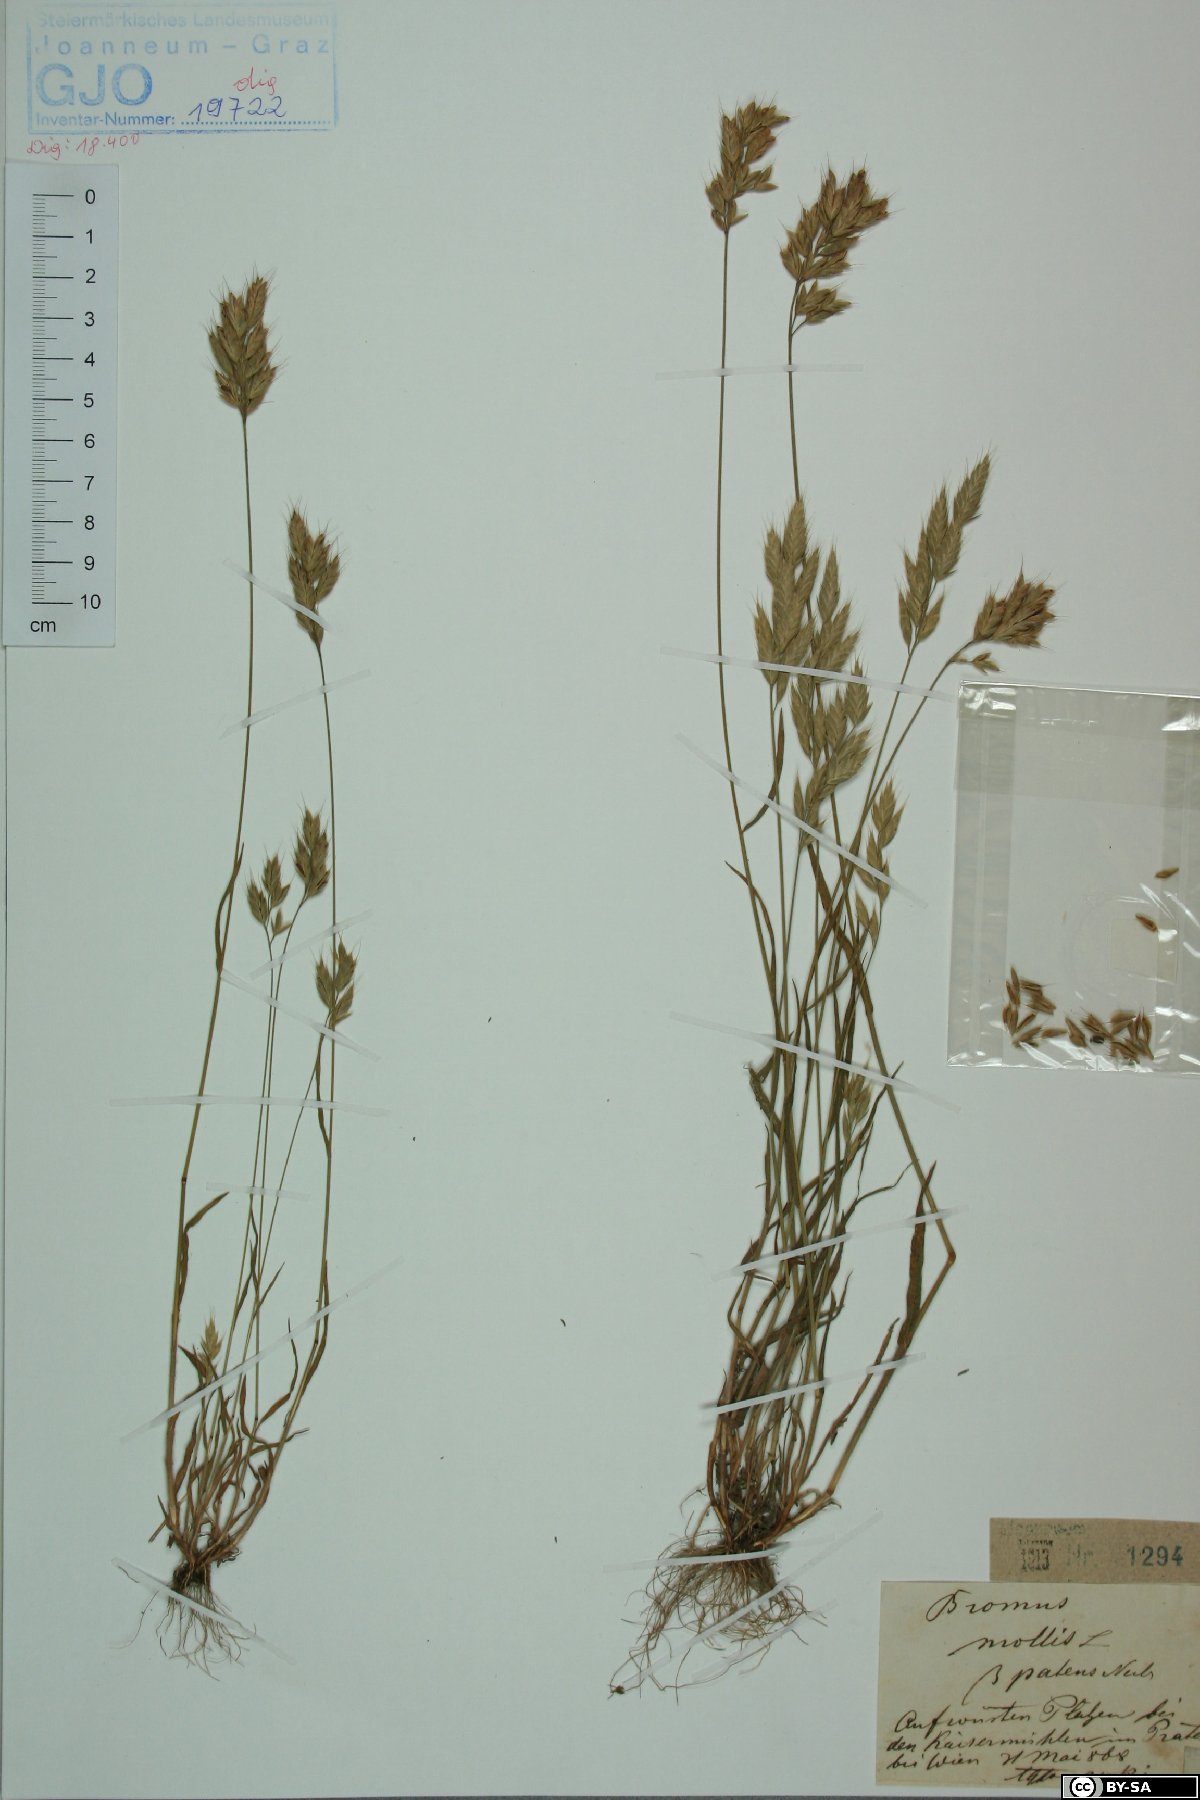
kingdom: Plantae
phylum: Tracheophyta
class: Liliopsida
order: Poales
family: Poaceae
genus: Bromus
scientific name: Bromus hordeaceus
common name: Soft brome
